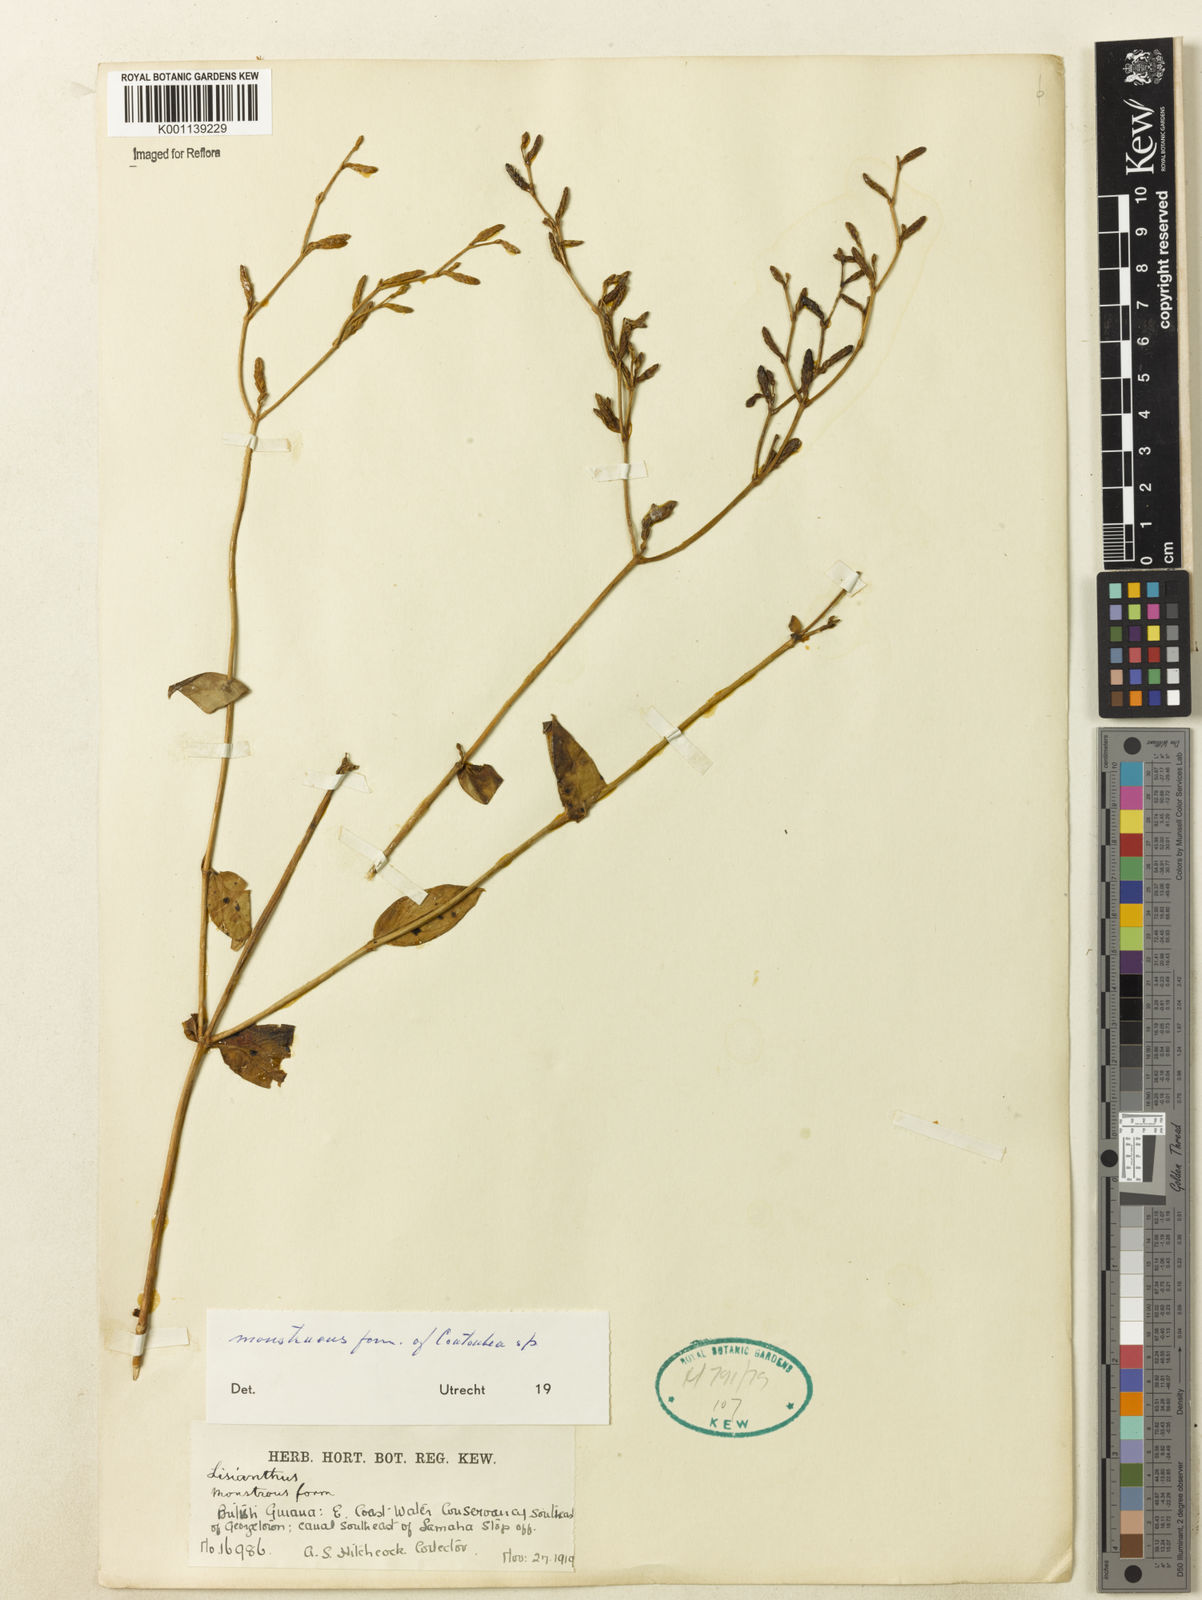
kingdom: Plantae
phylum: Tracheophyta
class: Magnoliopsida
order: Gentianales
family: Gentianaceae
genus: Coutoubea
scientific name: Coutoubea
